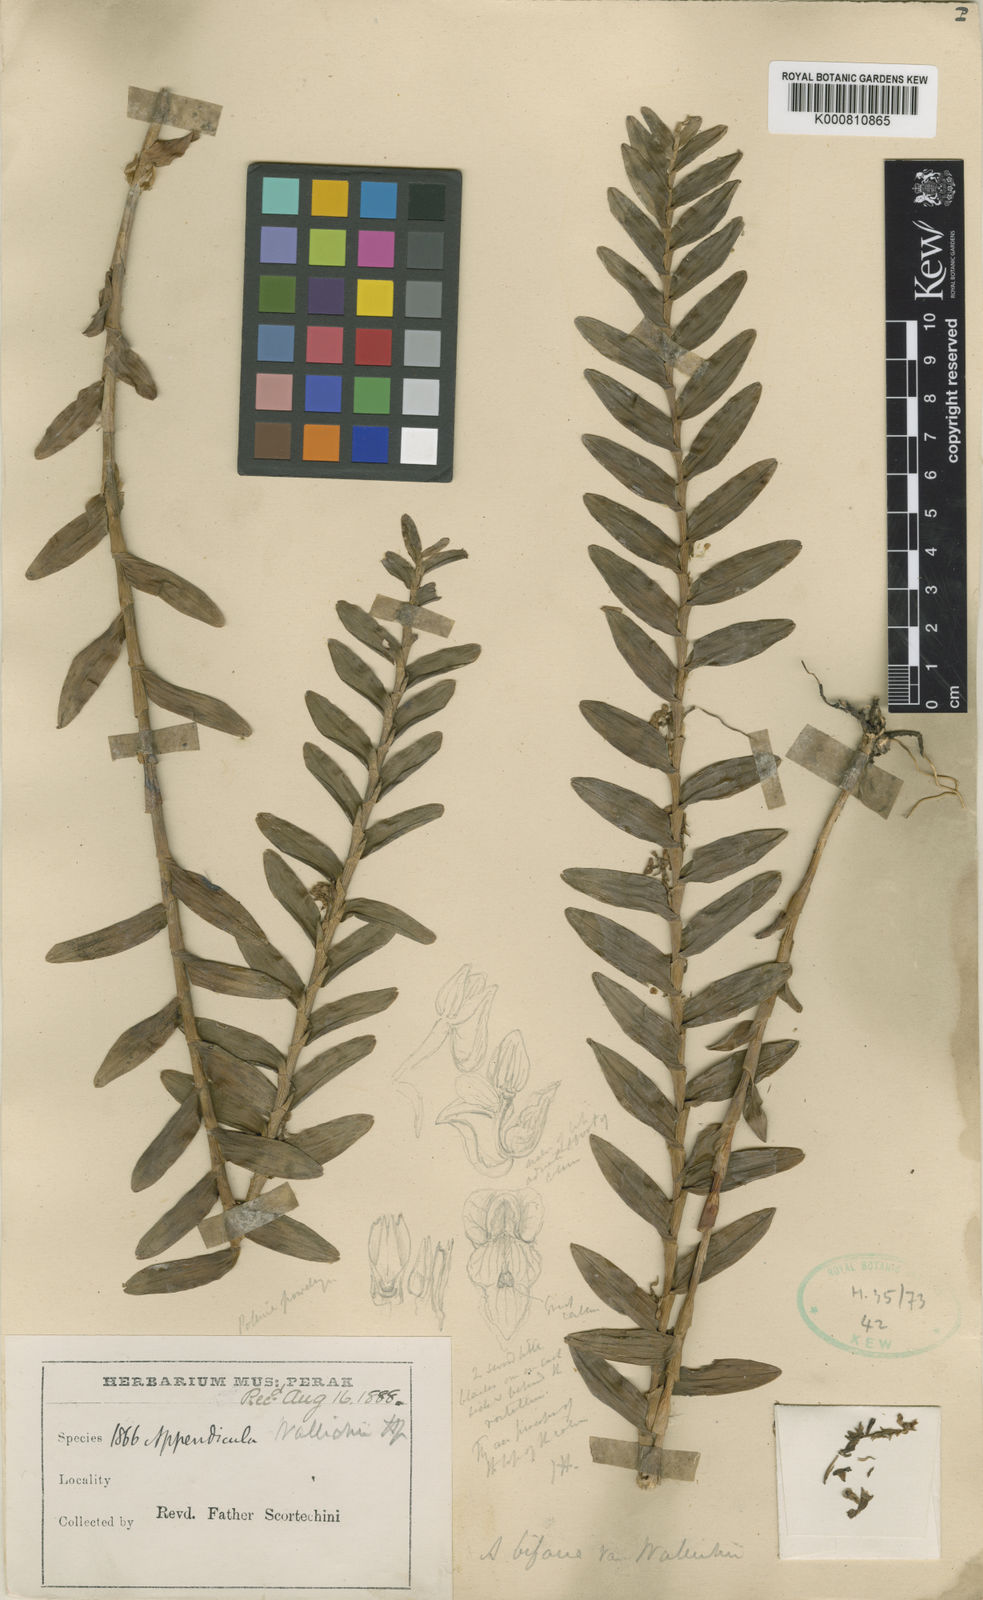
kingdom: Plantae
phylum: Tracheophyta
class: Liliopsida
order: Asparagales
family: Orchidaceae
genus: Appendicula
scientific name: Appendicula
